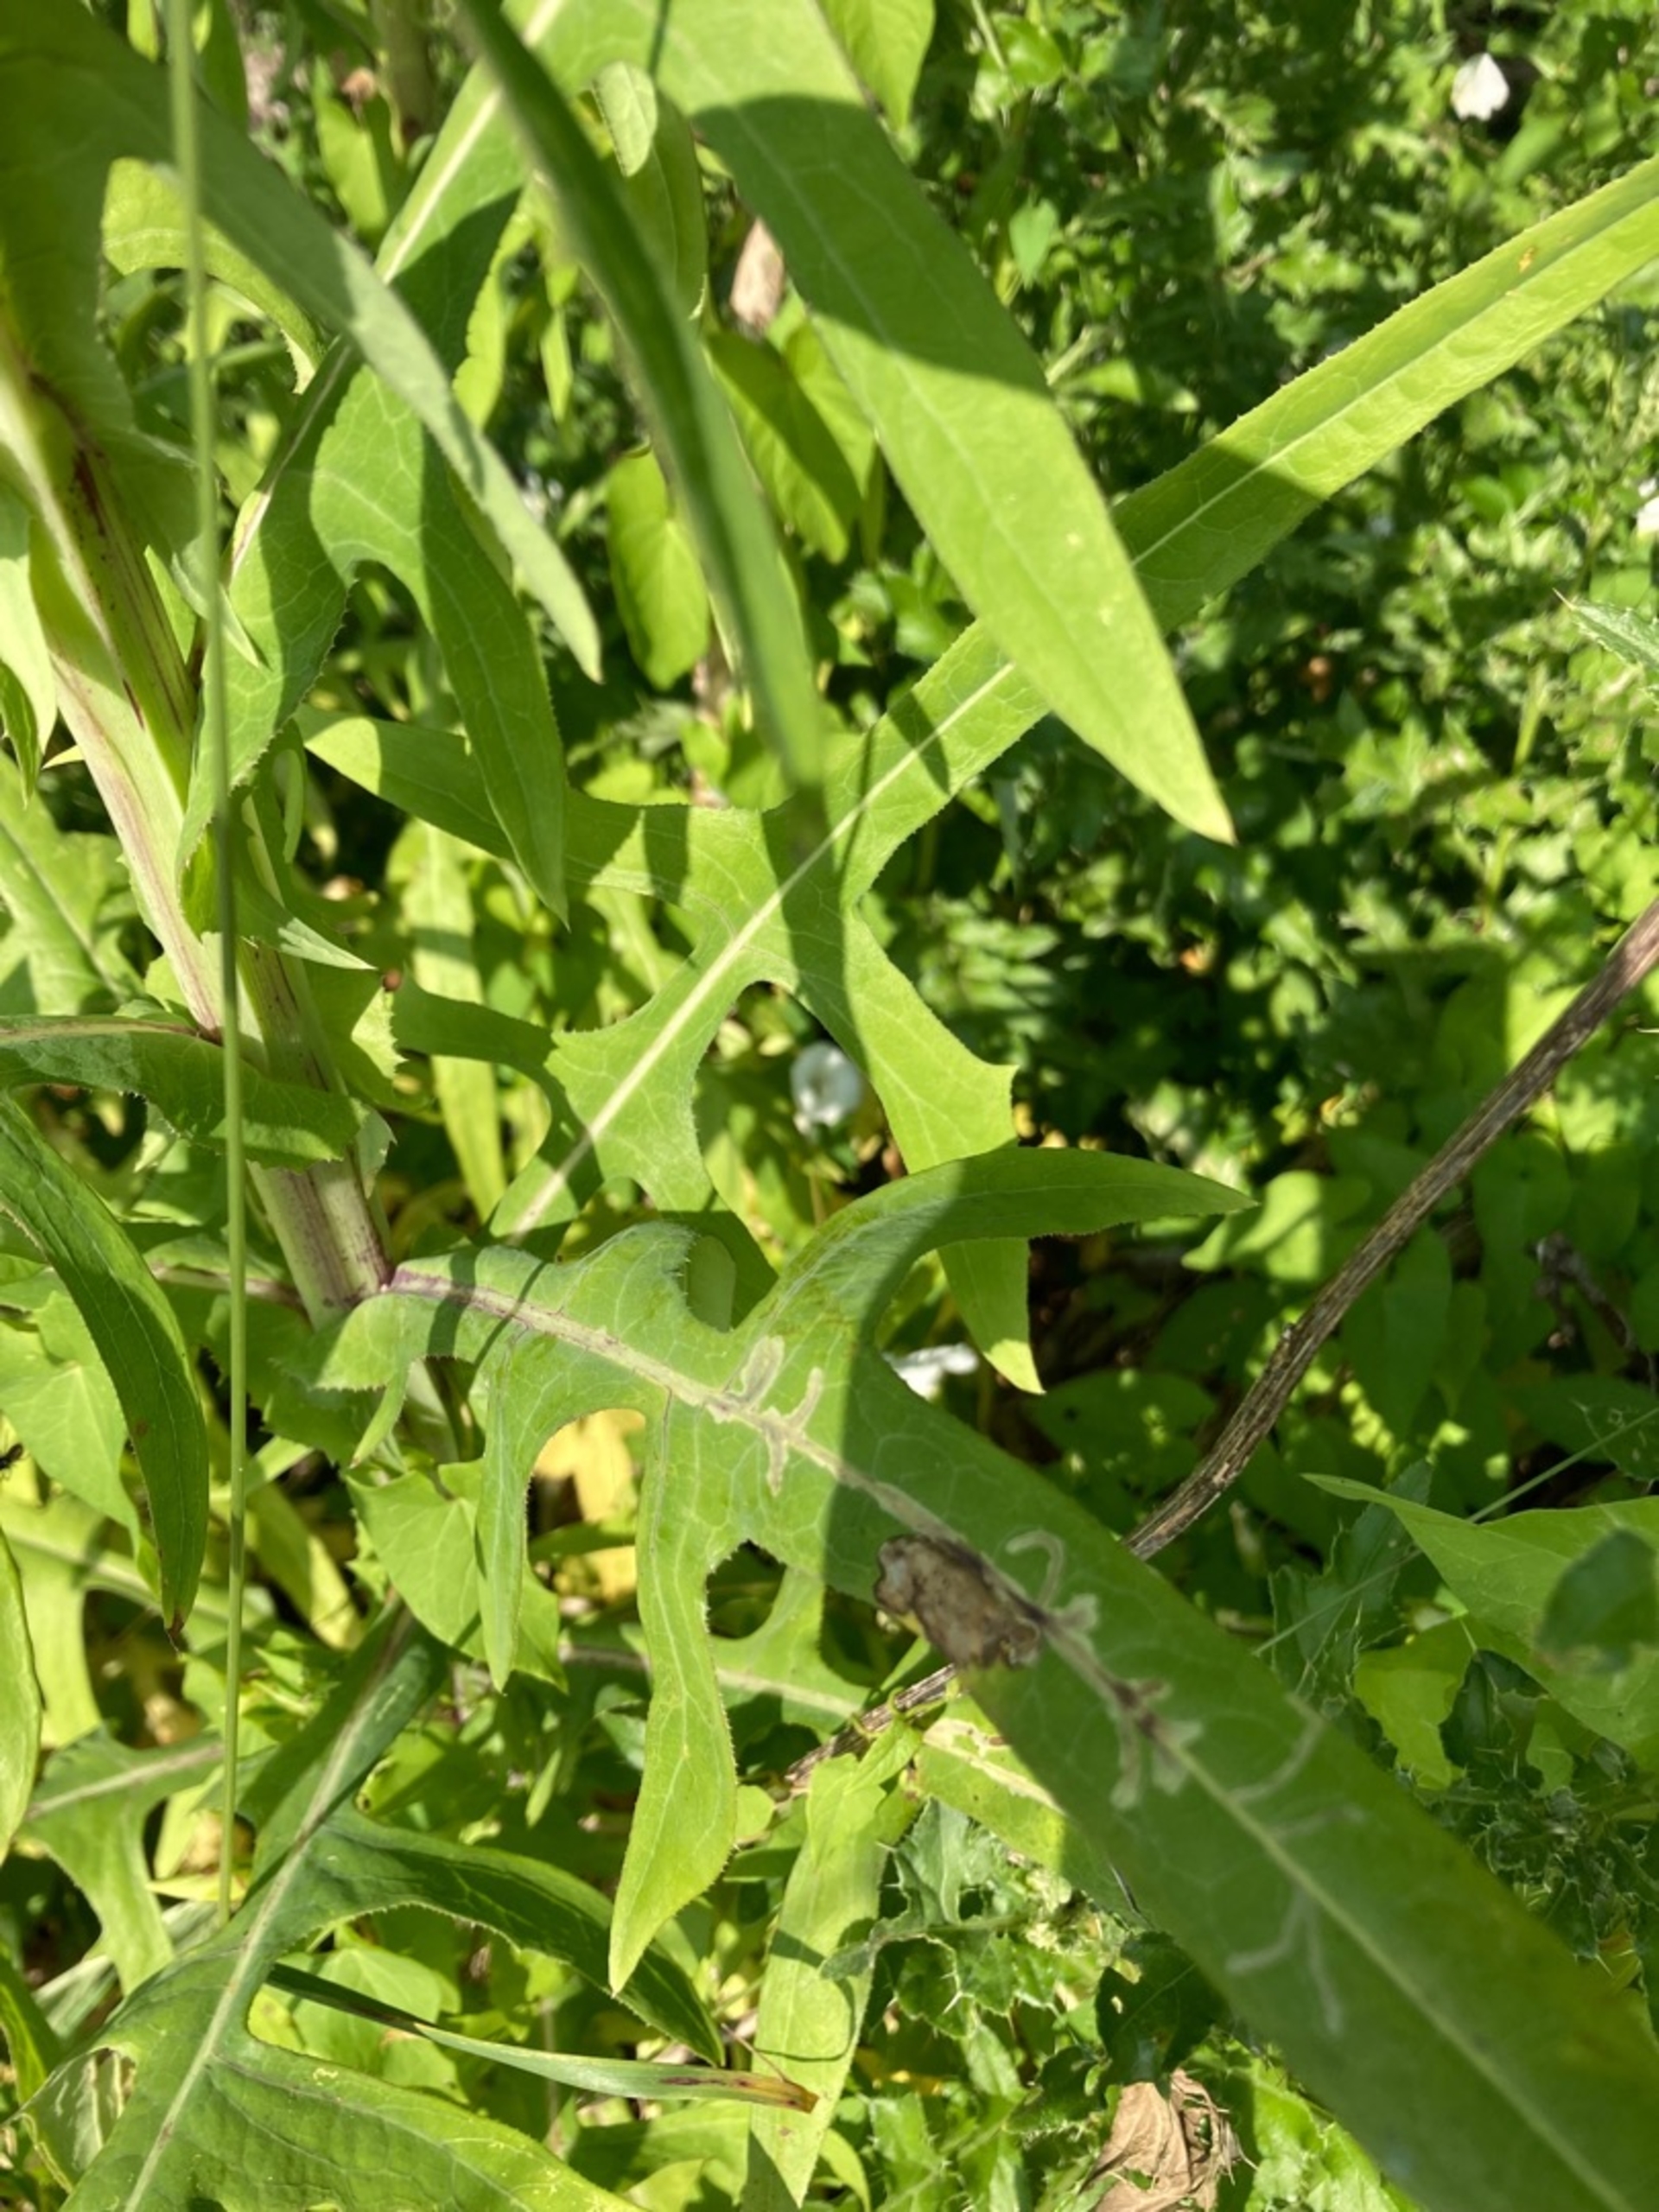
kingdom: Plantae
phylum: Tracheophyta
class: Magnoliopsida
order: Asterales
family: Asteraceae
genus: Sonchus
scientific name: Sonchus palustris
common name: Kær-svinemælk
